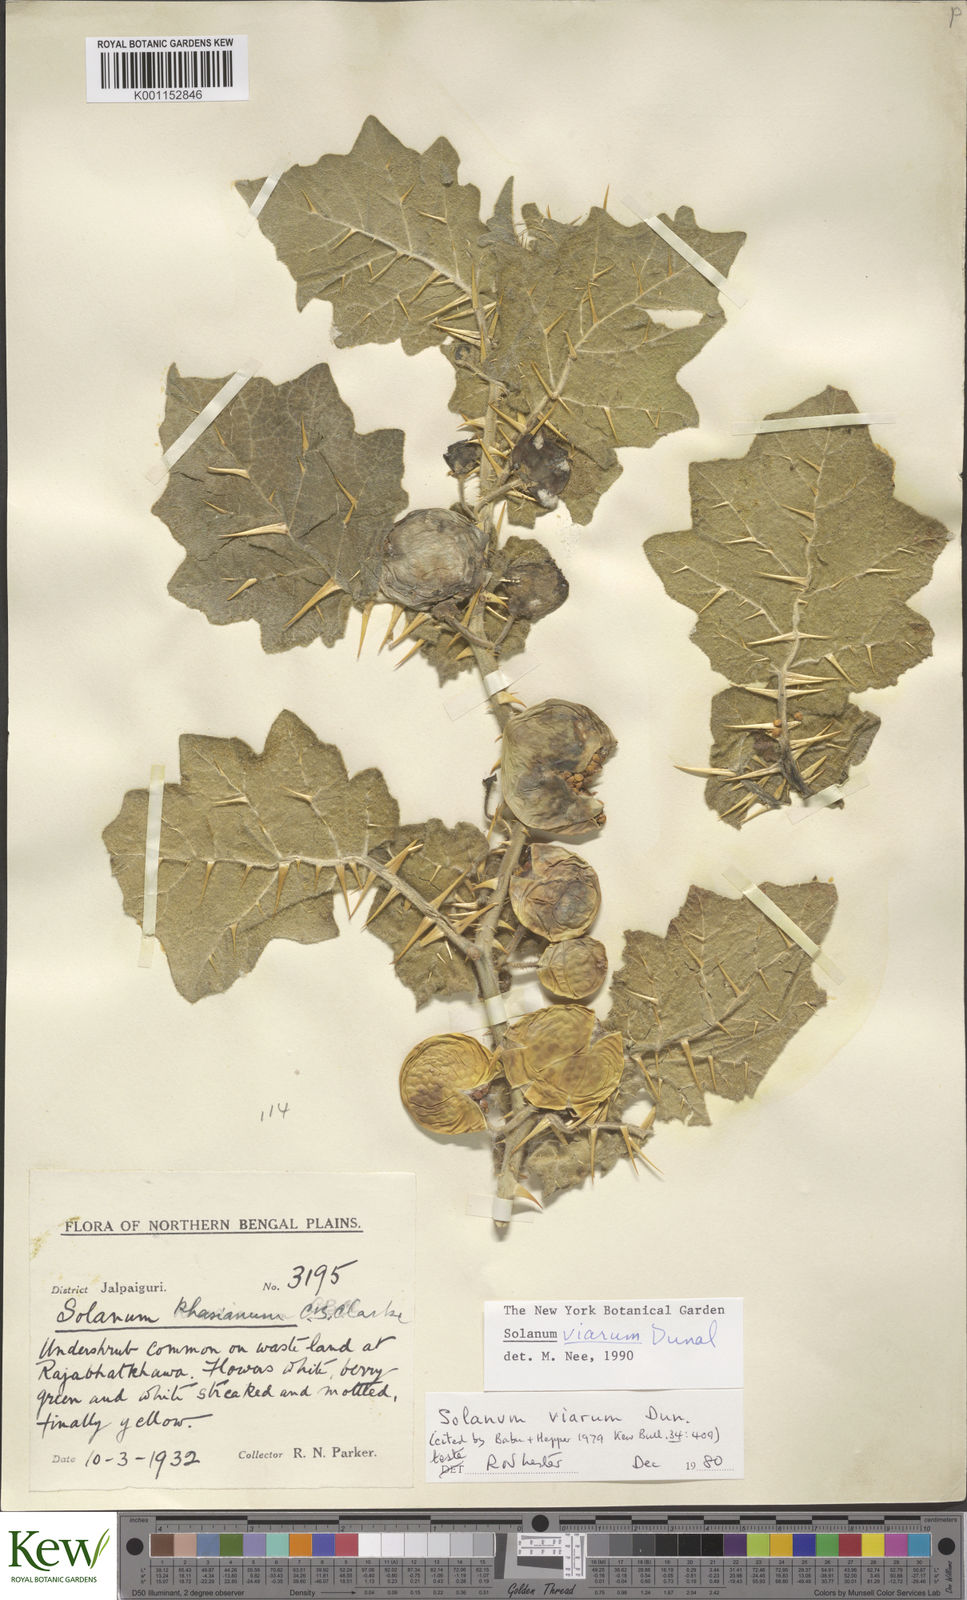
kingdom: Plantae
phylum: Tracheophyta
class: Magnoliopsida
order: Solanales
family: Solanaceae
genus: Solanum
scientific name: Solanum viarum
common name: Tropical soda apple
